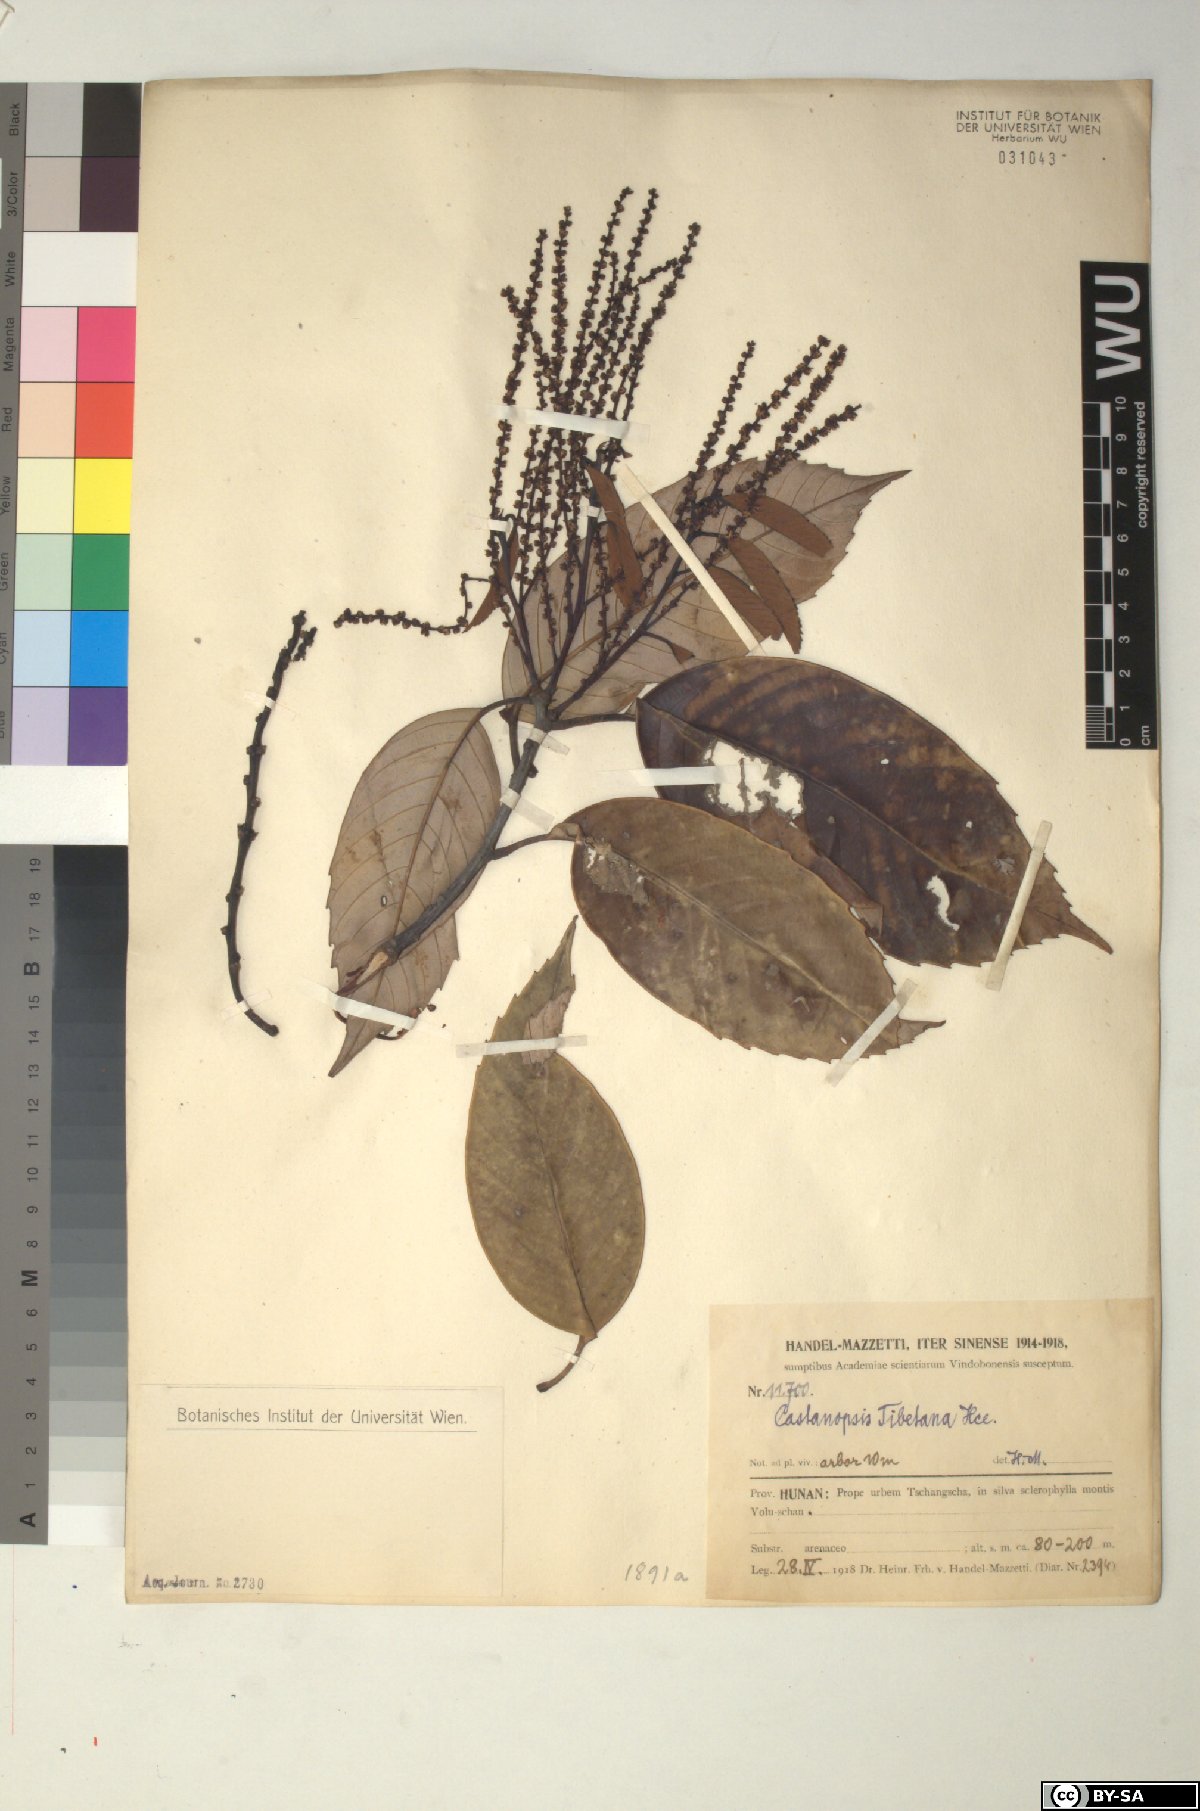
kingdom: Plantae
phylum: Tracheophyta
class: Magnoliopsida
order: Fagales
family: Fagaceae
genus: Castanopsis
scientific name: Castanopsis tibetana
